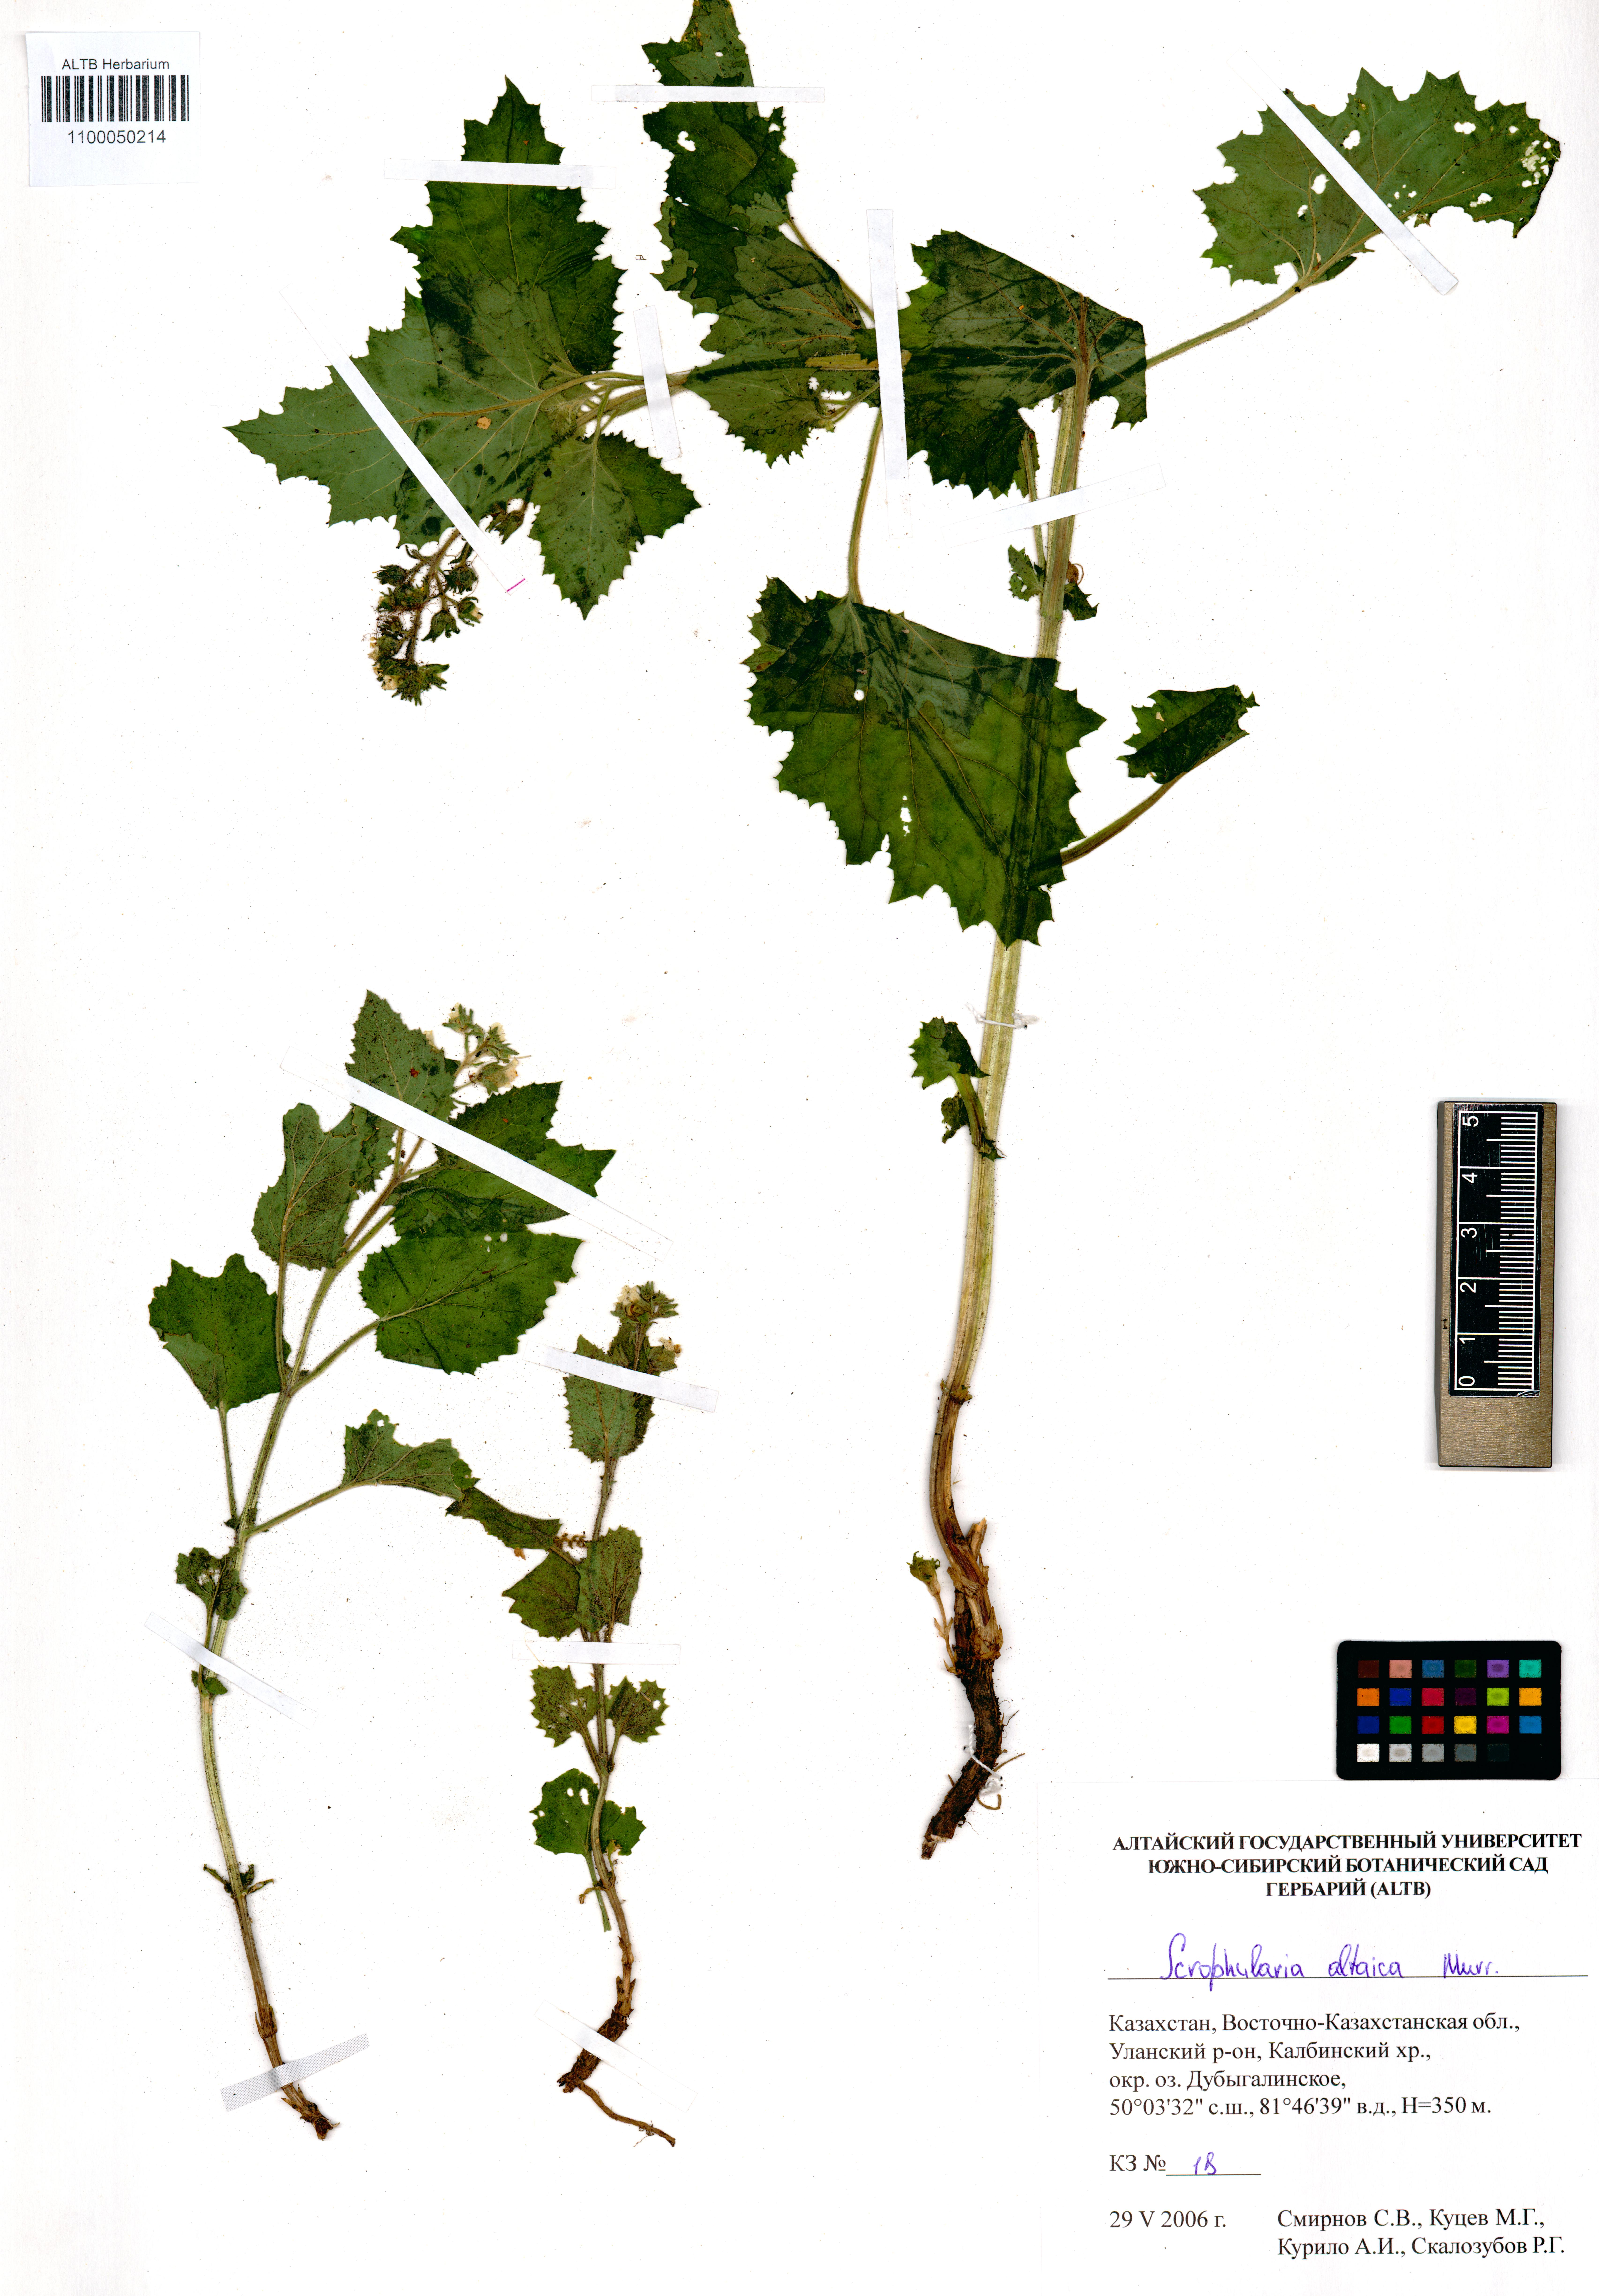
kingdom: Plantae
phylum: Tracheophyta
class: Magnoliopsida
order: Lamiales
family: Scrophulariaceae
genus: Scrophularia
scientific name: Scrophularia altaica
